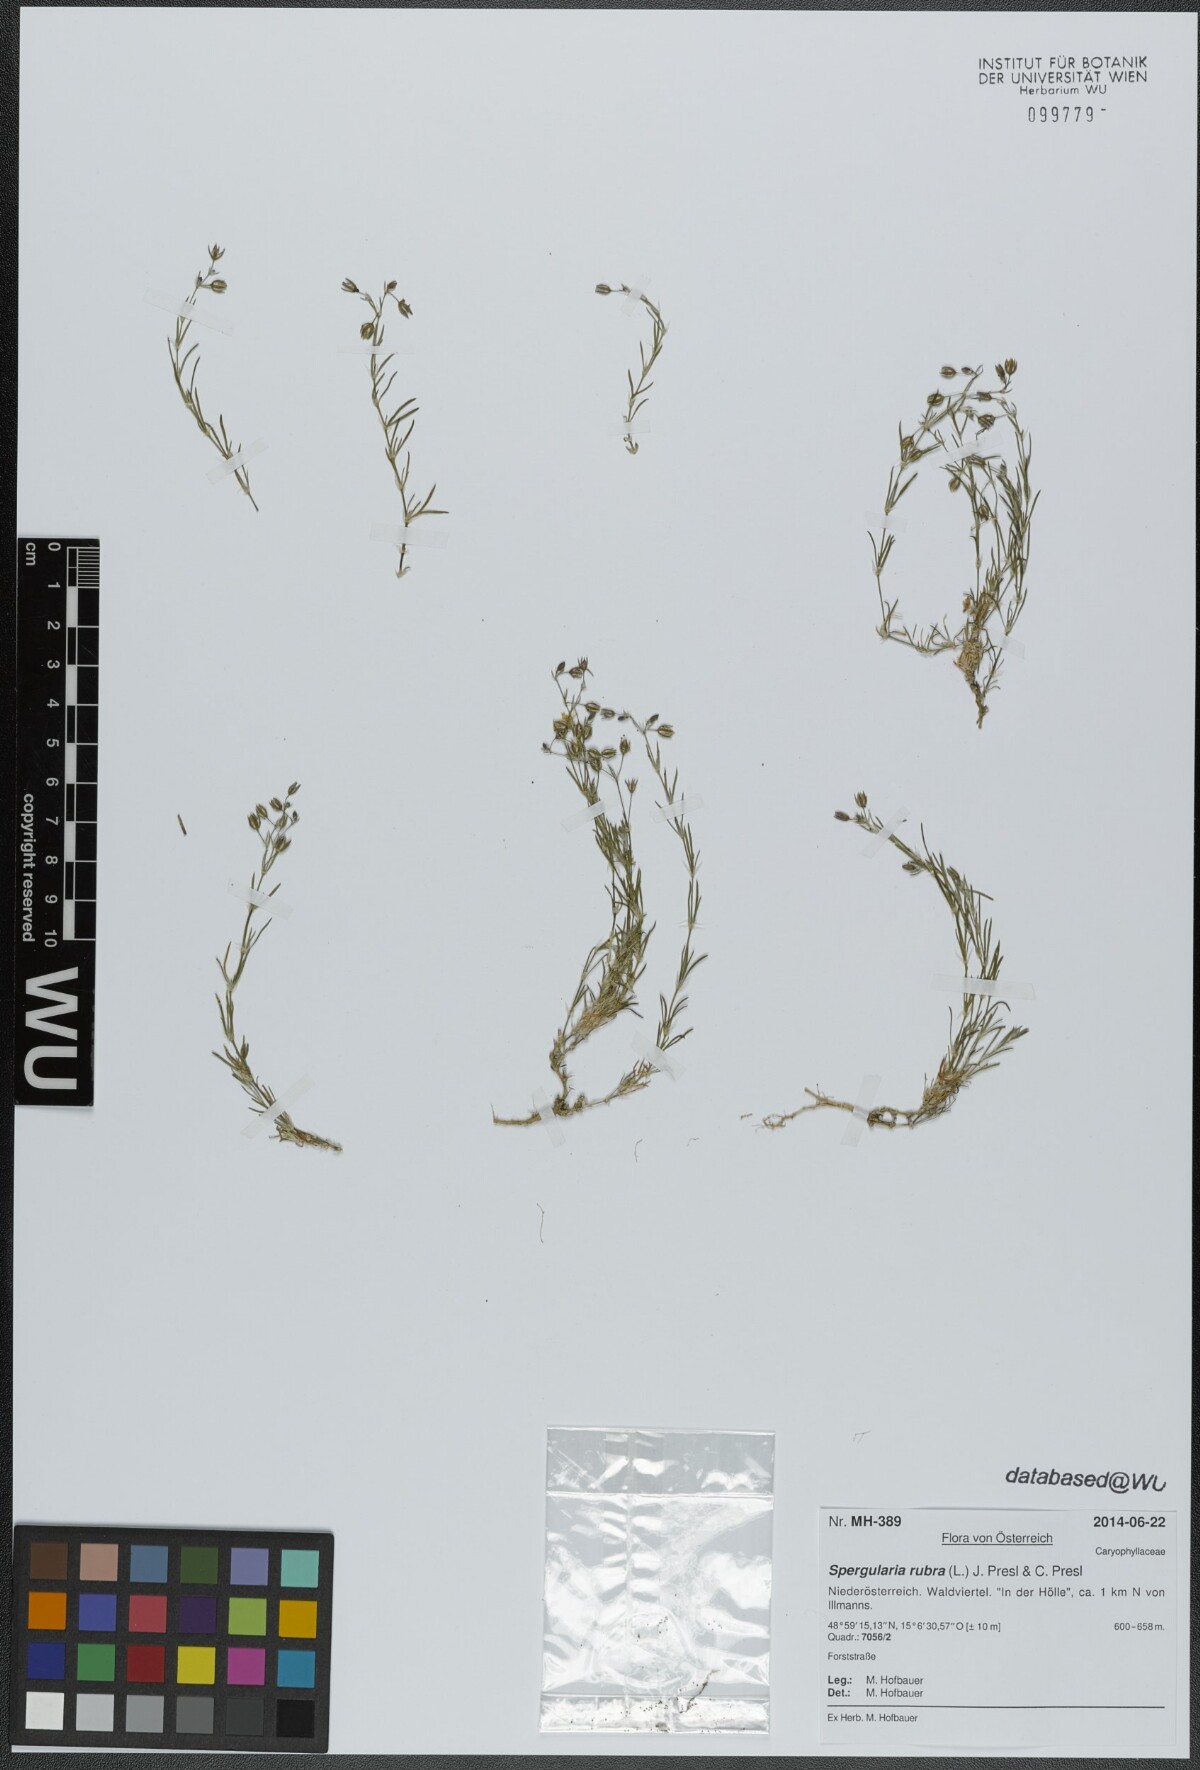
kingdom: Plantae
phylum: Tracheophyta
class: Magnoliopsida
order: Caryophyllales
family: Caryophyllaceae
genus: Spergularia
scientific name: Spergularia rubra
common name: Red sand-spurrey
